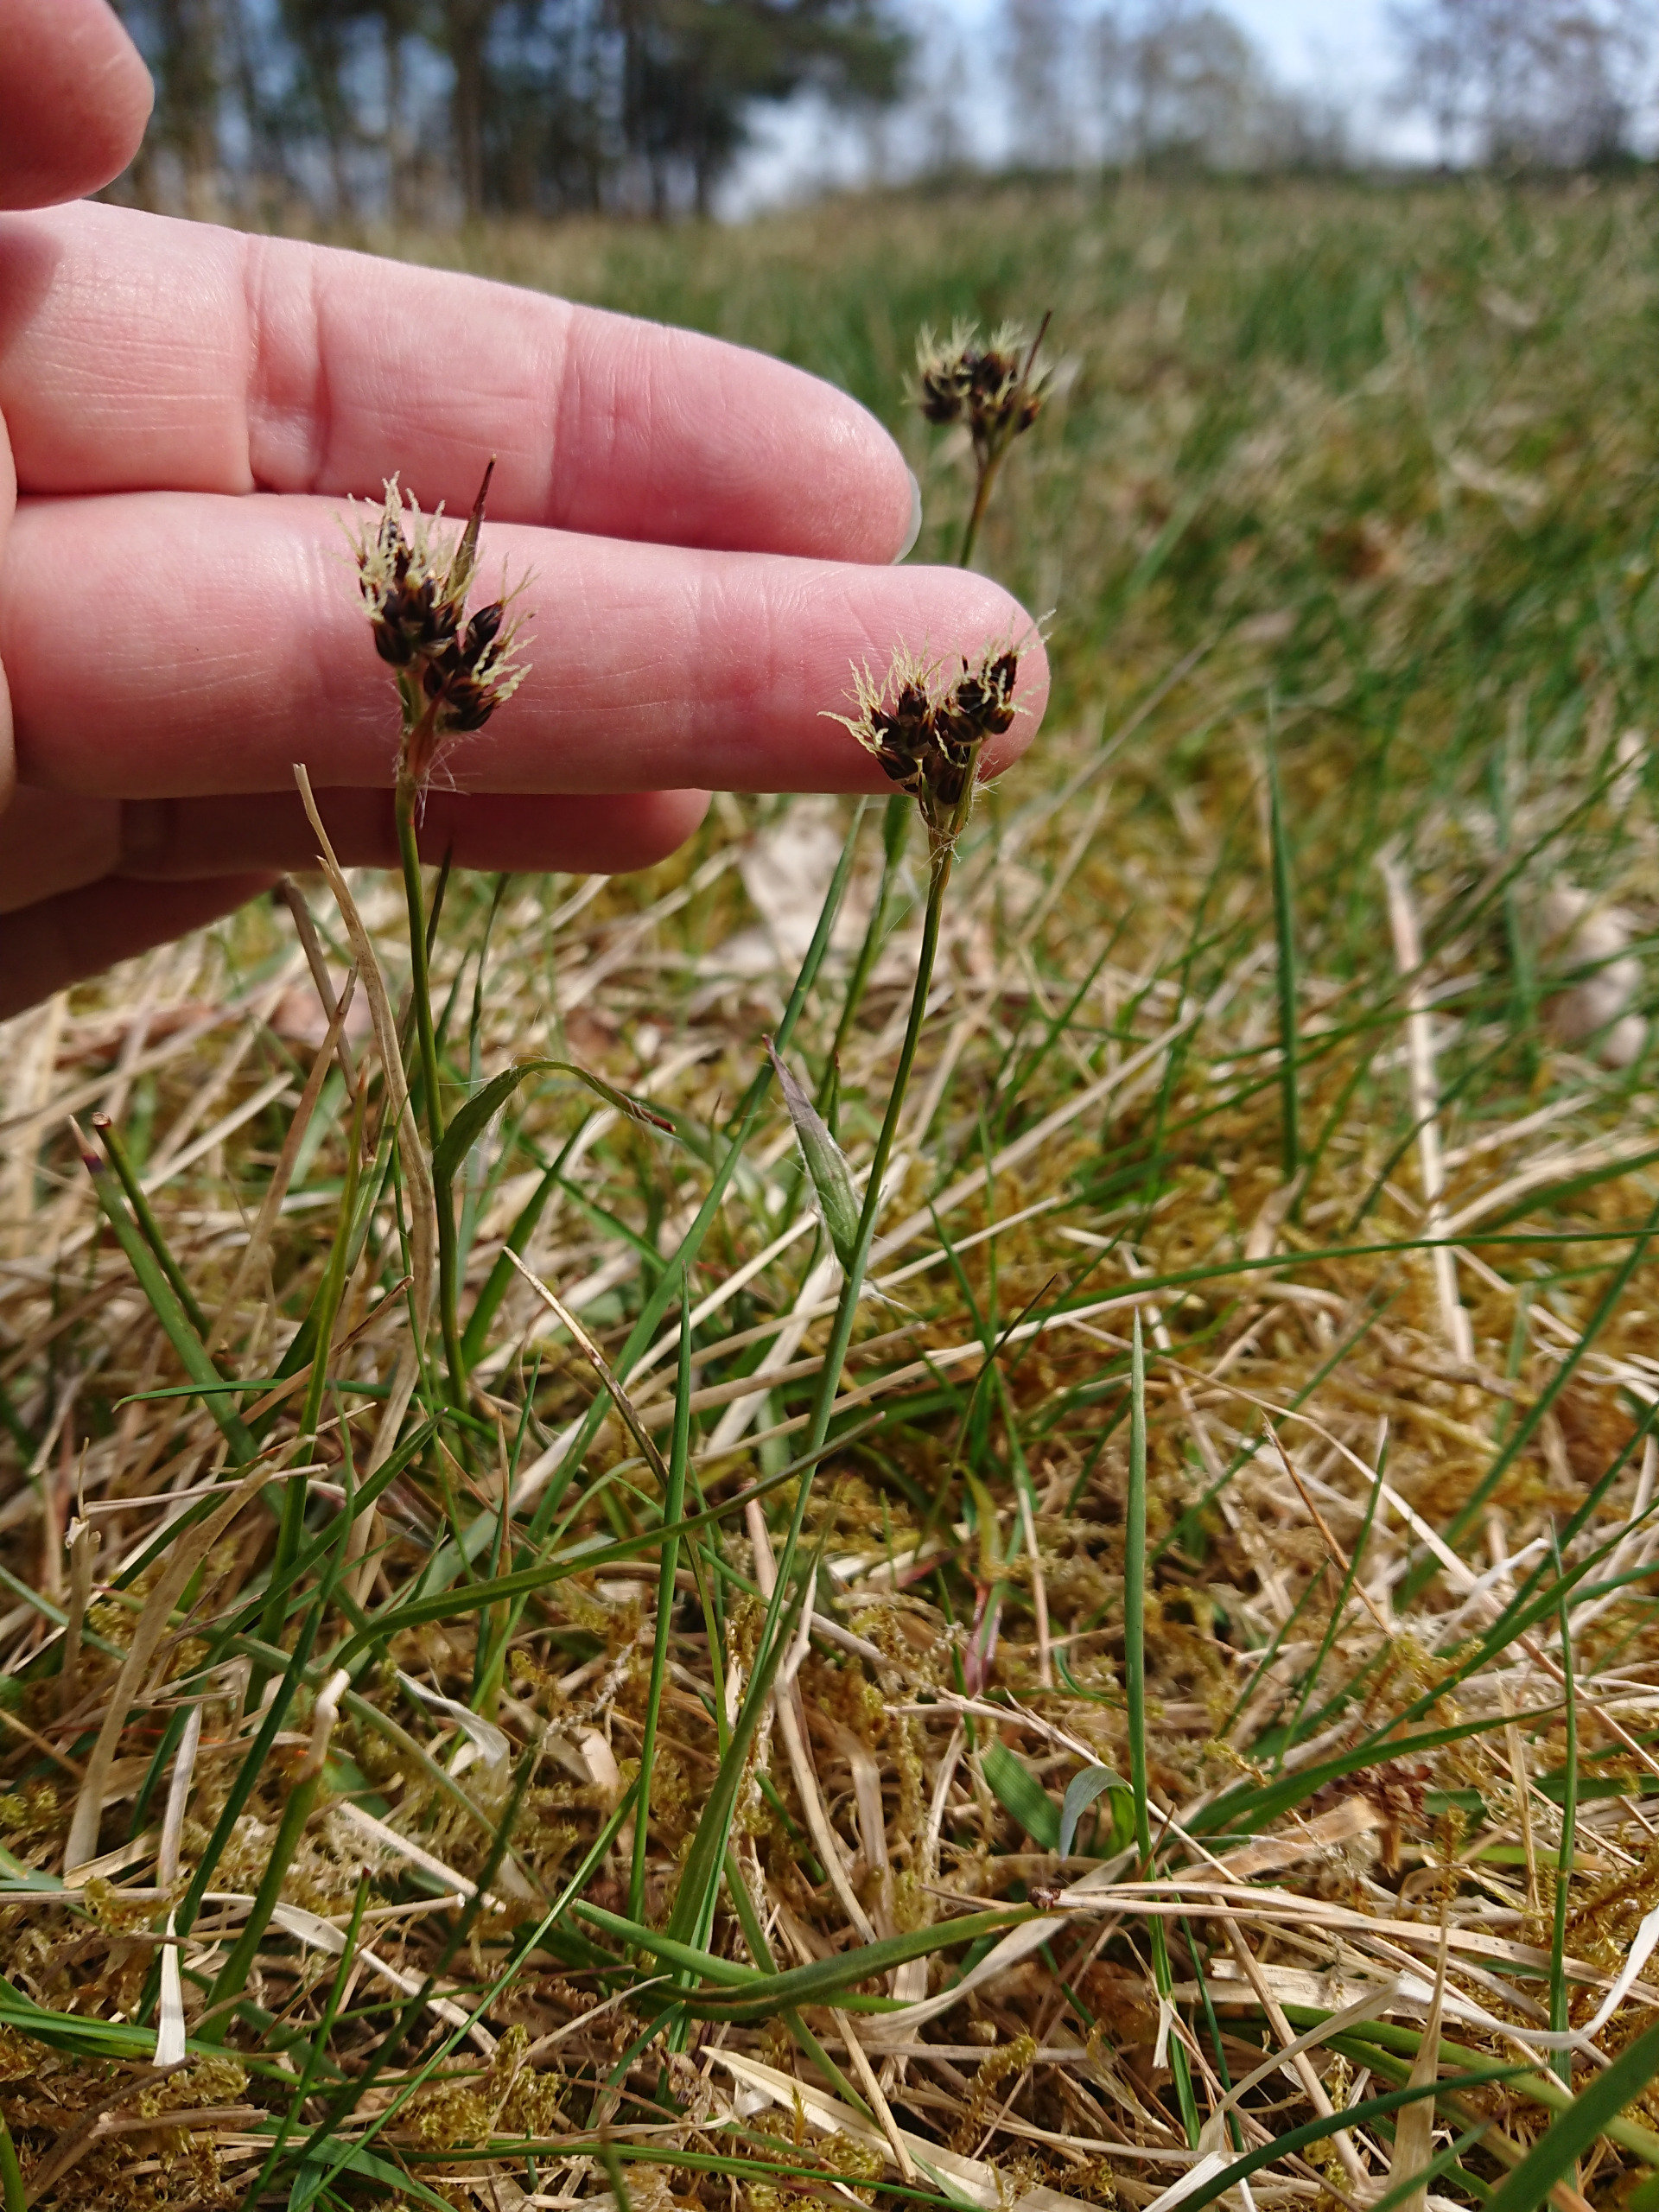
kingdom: Plantae
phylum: Tracheophyta
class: Liliopsida
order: Poales
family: Juncaceae
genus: Luzula
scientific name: Luzula campestris
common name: Mark-frytle
